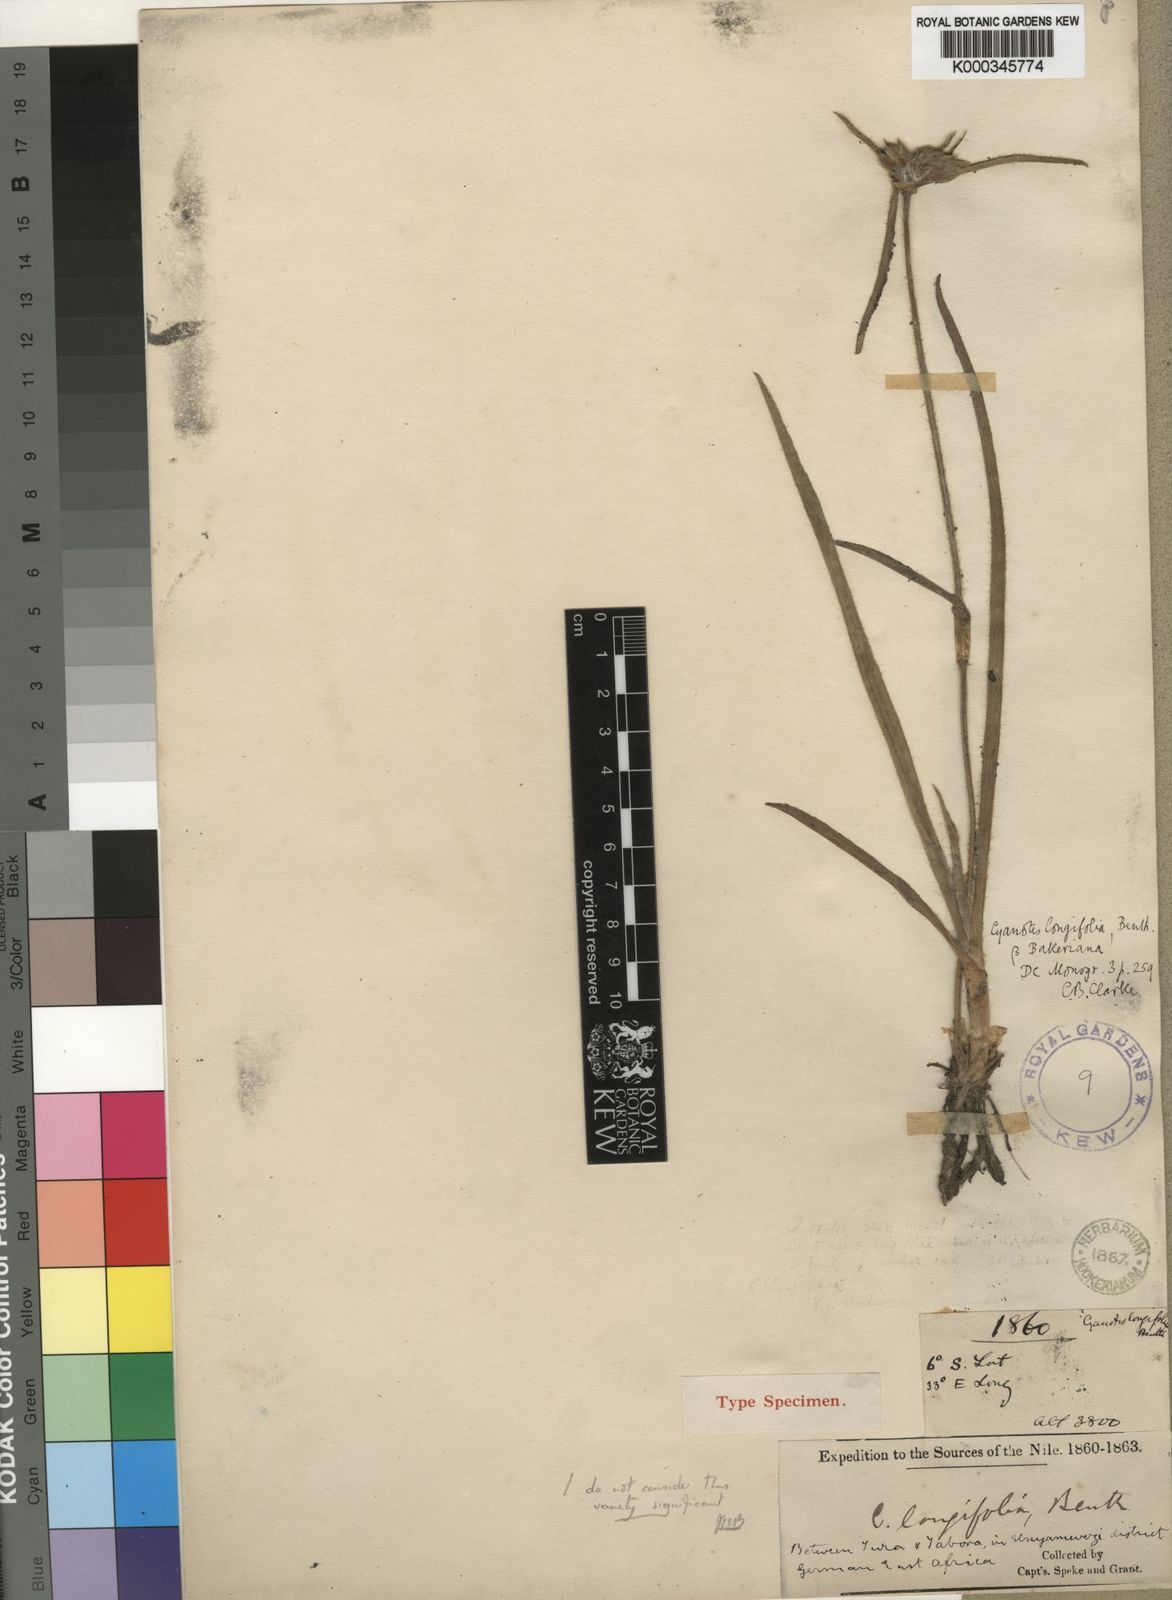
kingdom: Plantae
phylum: Tracheophyta
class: Liliopsida
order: Commelinales
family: Commelinaceae
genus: Cyanotis
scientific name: Cyanotis longifolia
